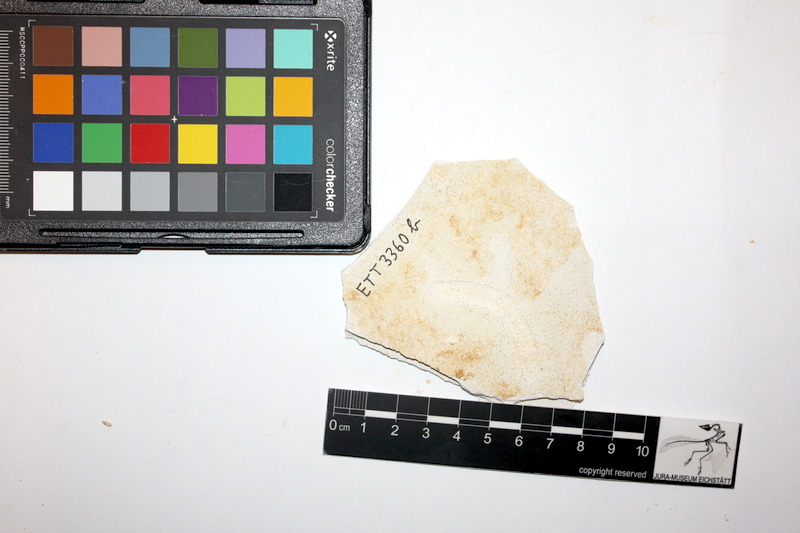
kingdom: Animalia
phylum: Chordata
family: Pleuropholidae
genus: Pleuropholis
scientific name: Pleuropholis
